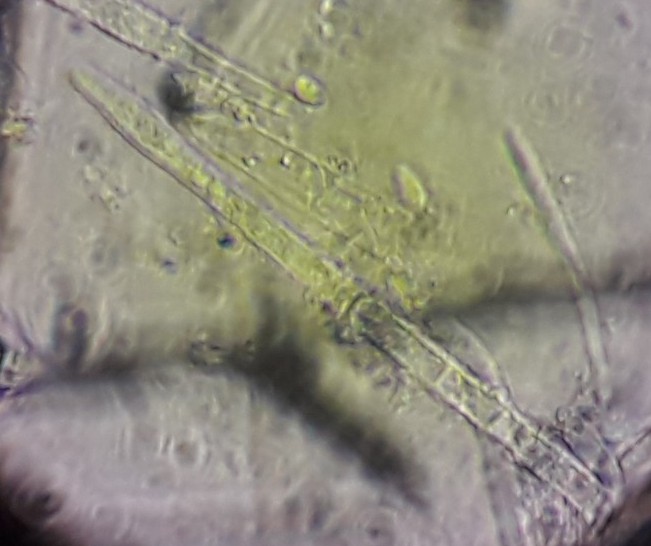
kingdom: Fungi
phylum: Ascomycota
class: Leotiomycetes
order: Helotiales
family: Lachnaceae
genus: Lachnum
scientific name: Lachnum impudicum
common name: vinter-frynseskive
